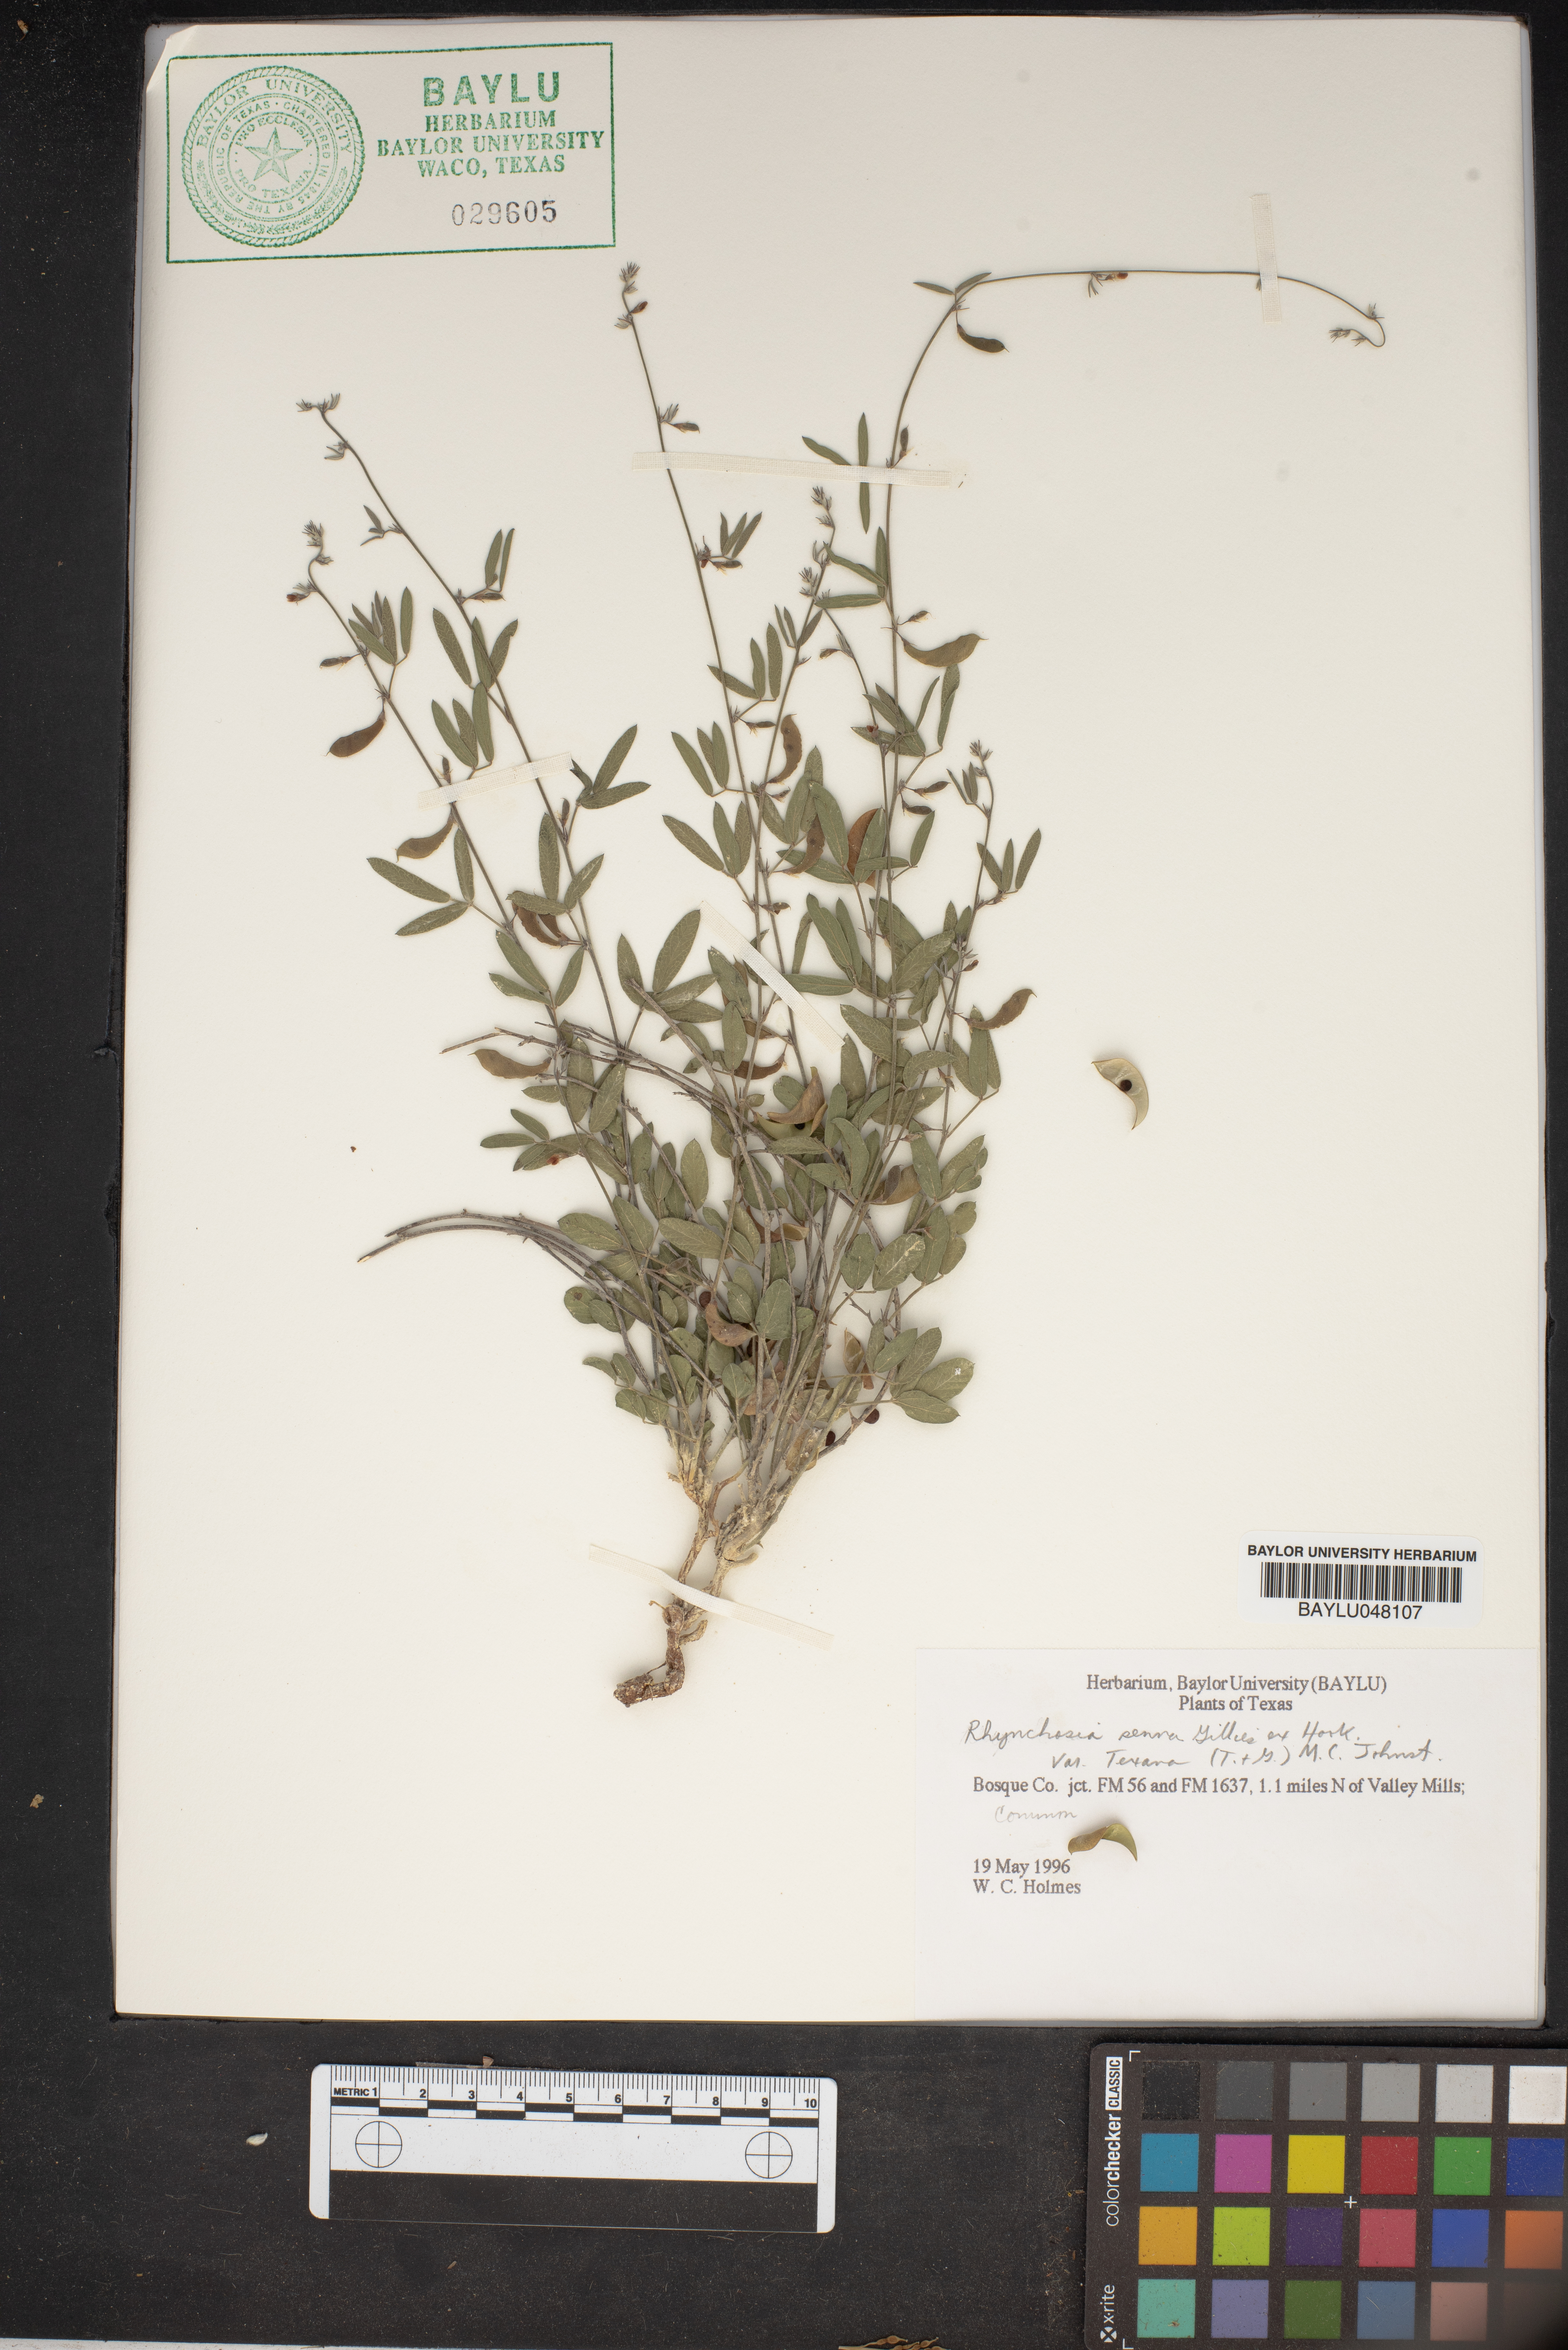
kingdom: Plantae
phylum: Tracheophyta
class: Magnoliopsida
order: Fabales
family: Fabaceae
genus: Rhynchosia
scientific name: Rhynchosia senna
